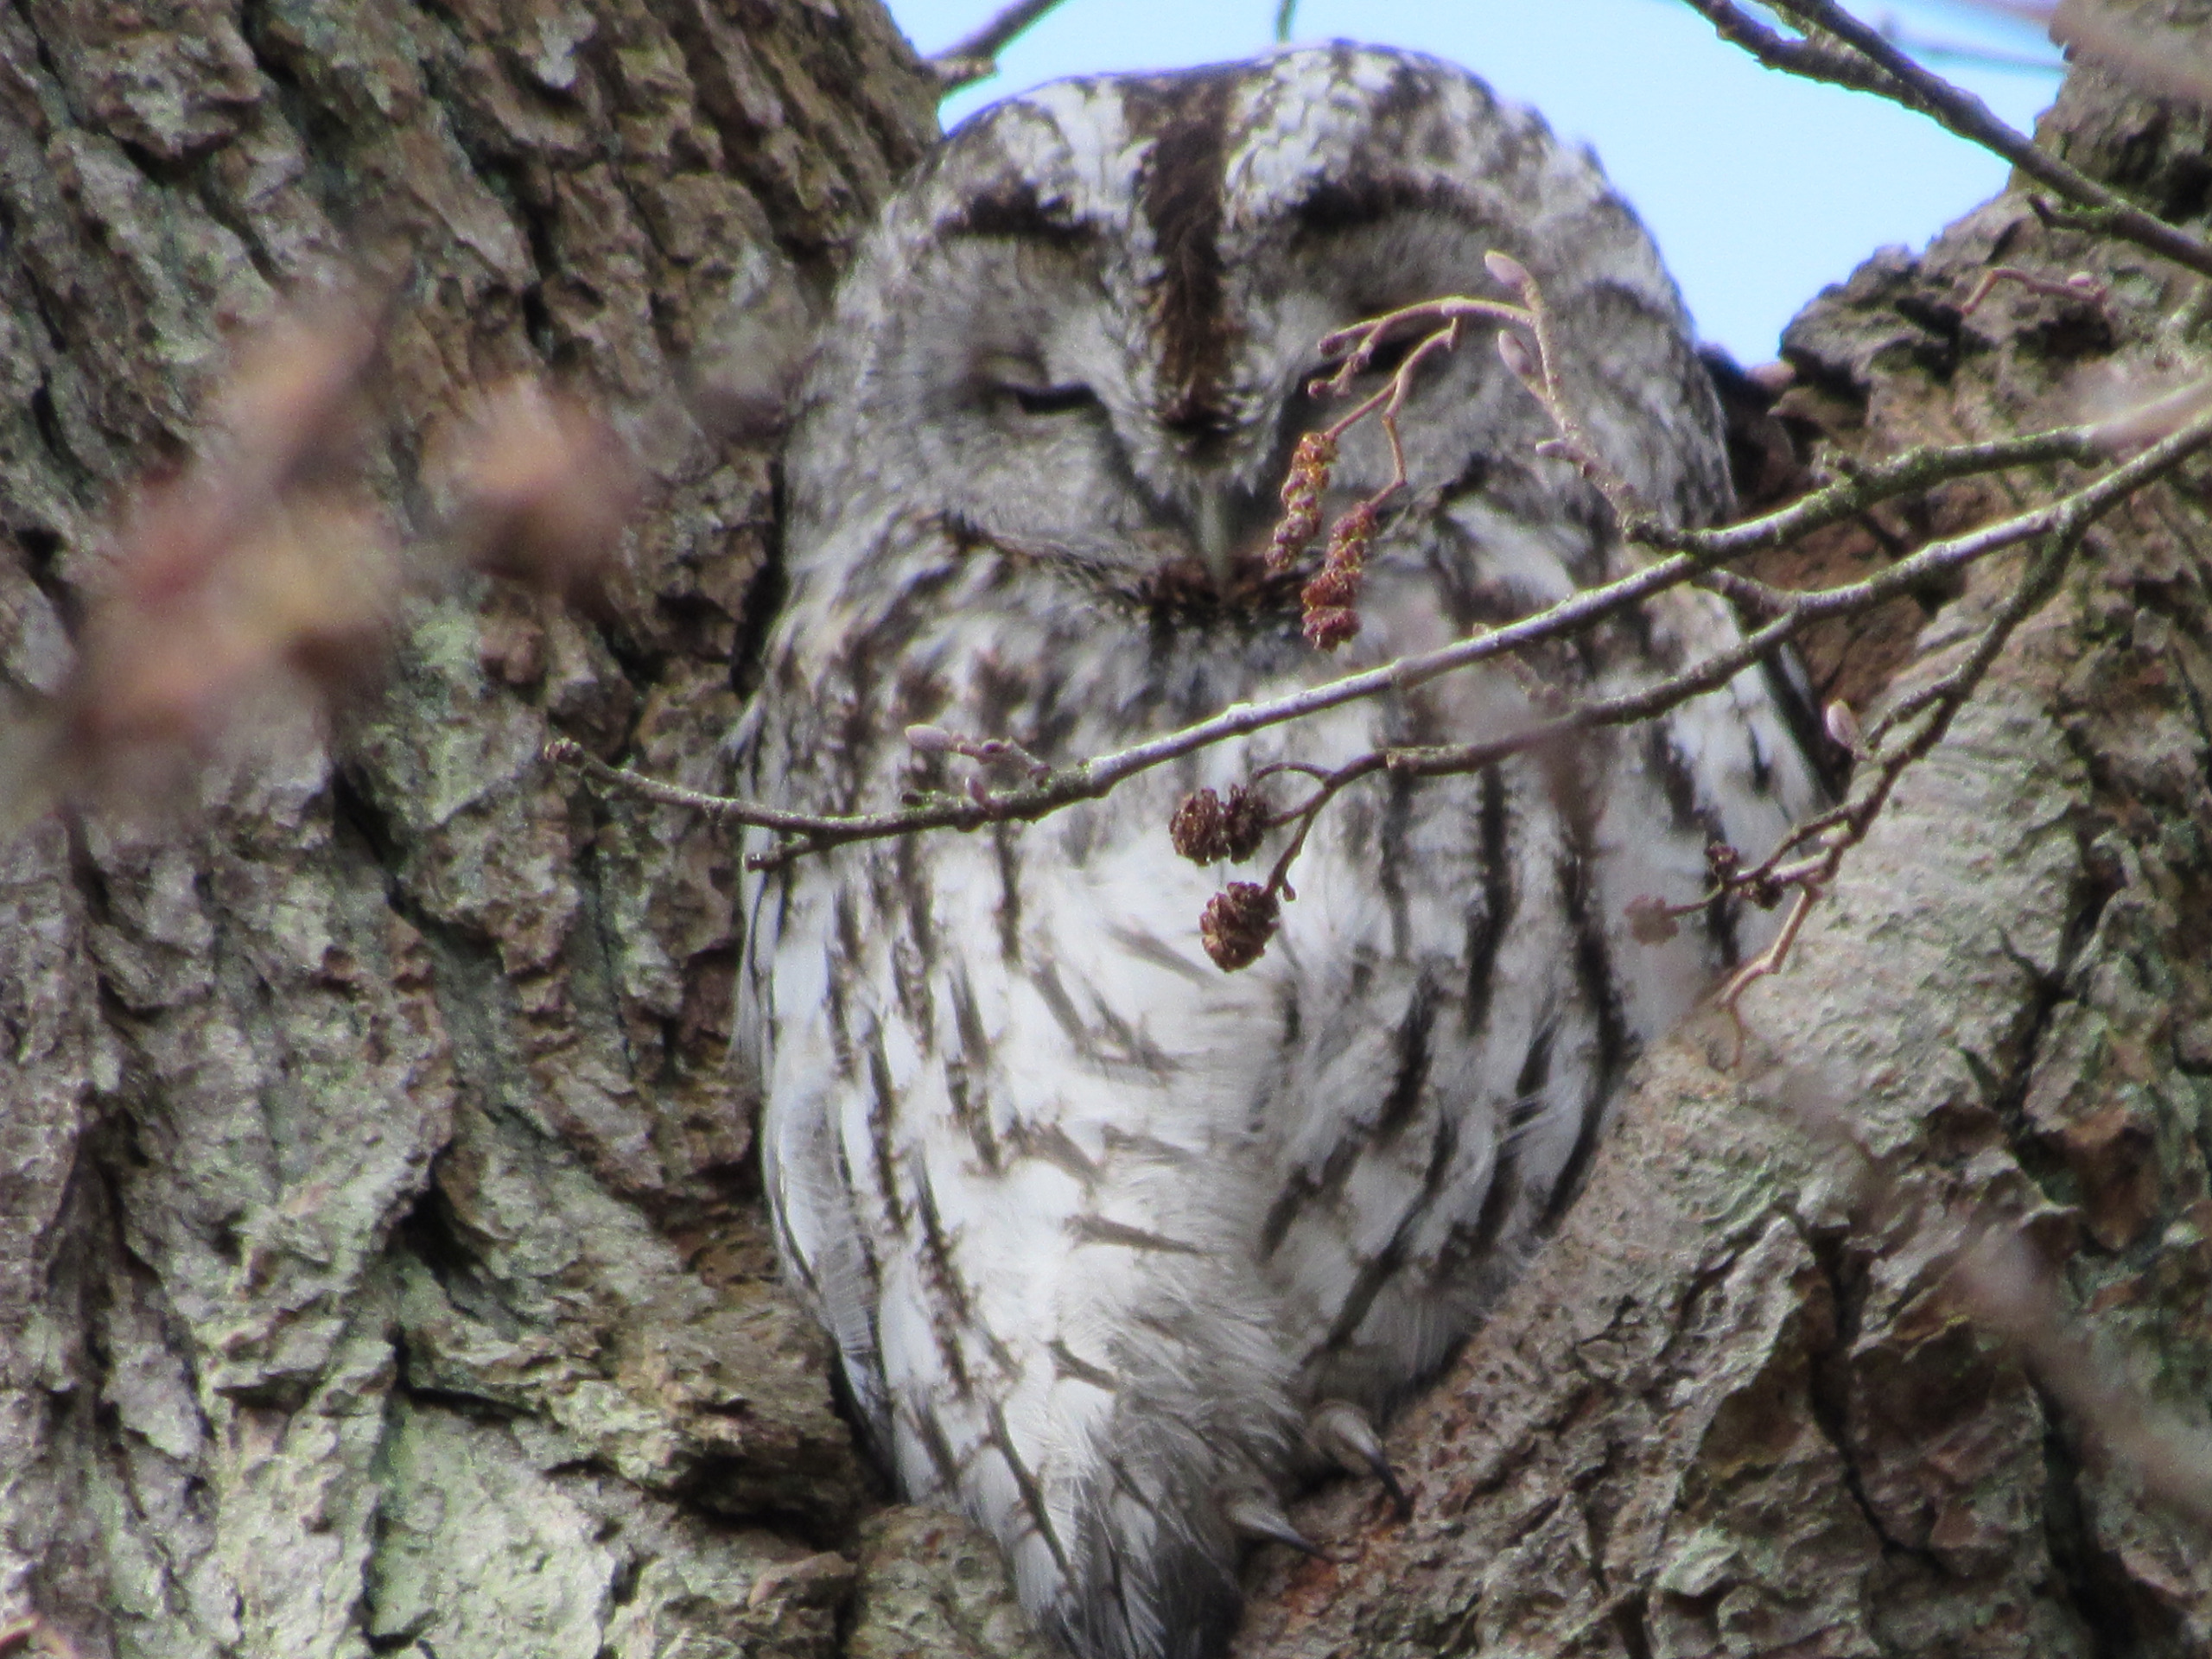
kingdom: Animalia
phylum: Chordata
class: Aves
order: Strigiformes
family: Strigidae
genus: Strix
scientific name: Strix aluco
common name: Natugle
